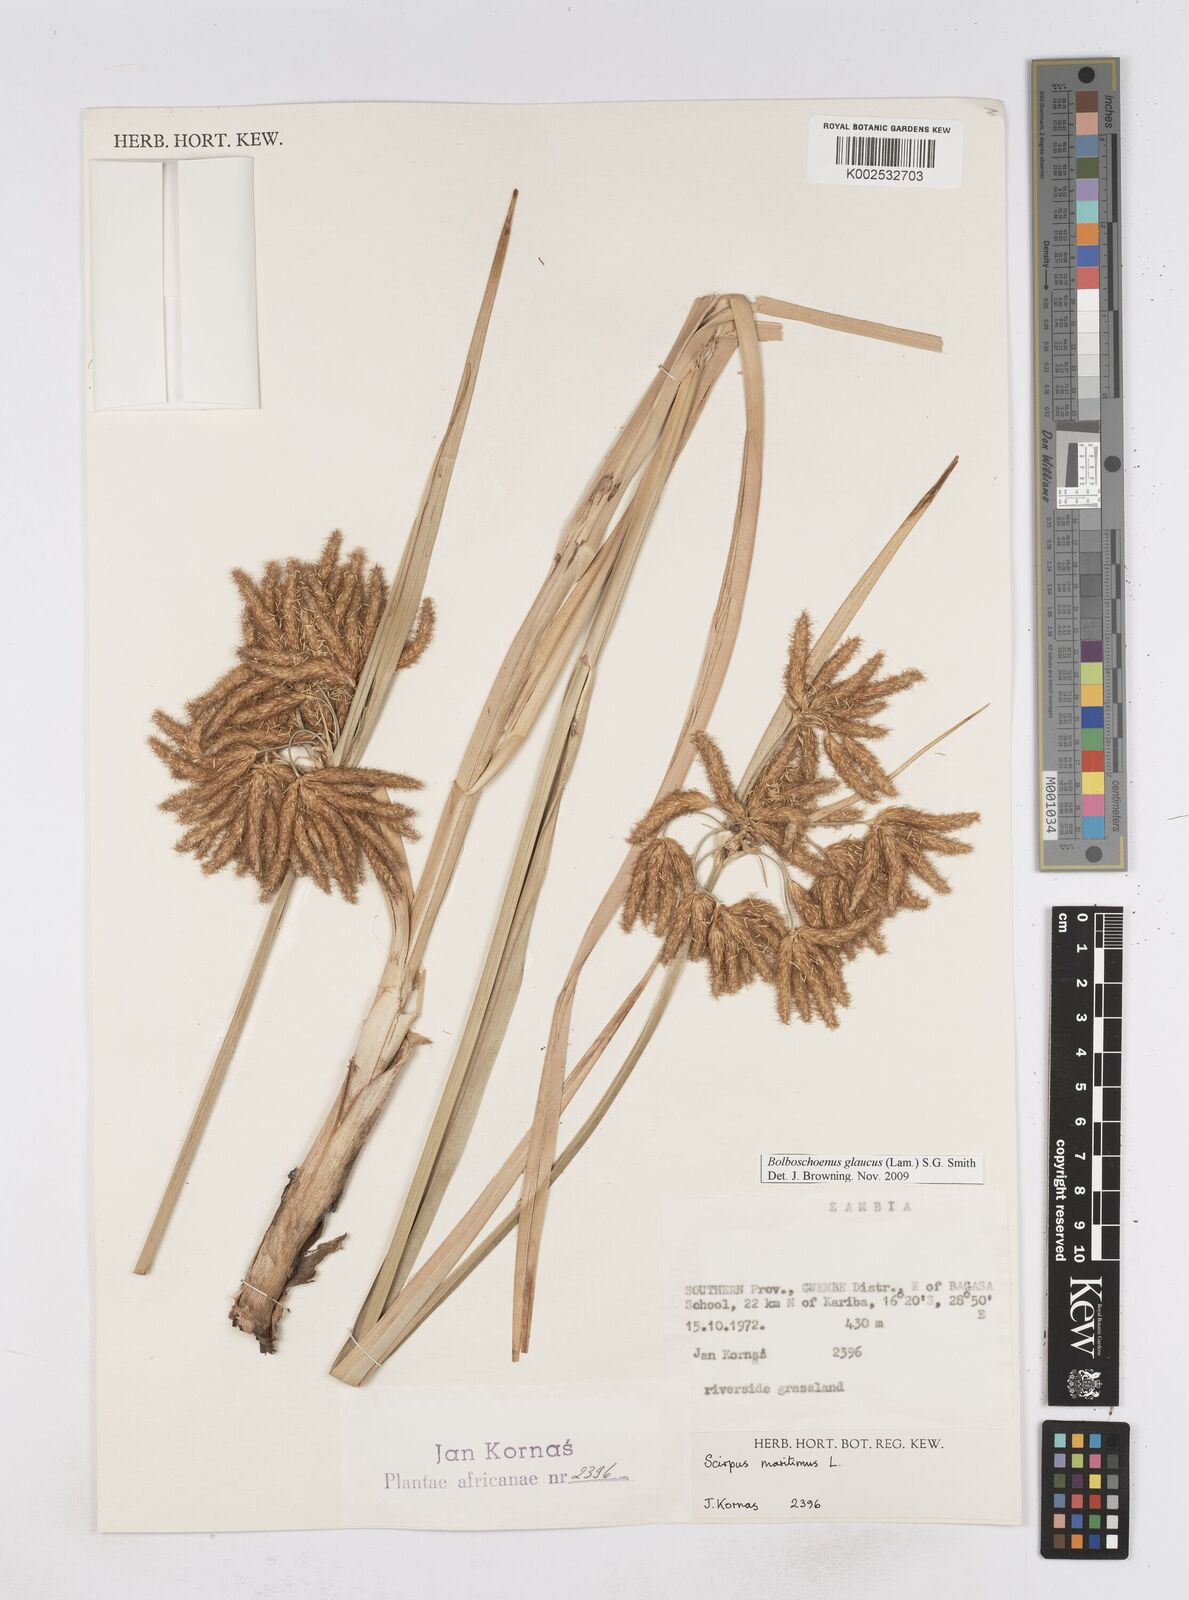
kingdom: Plantae
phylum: Tracheophyta
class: Liliopsida
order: Poales
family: Cyperaceae
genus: Bolboschoenus
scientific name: Bolboschoenus glaucus
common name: Tuberous bulrush
